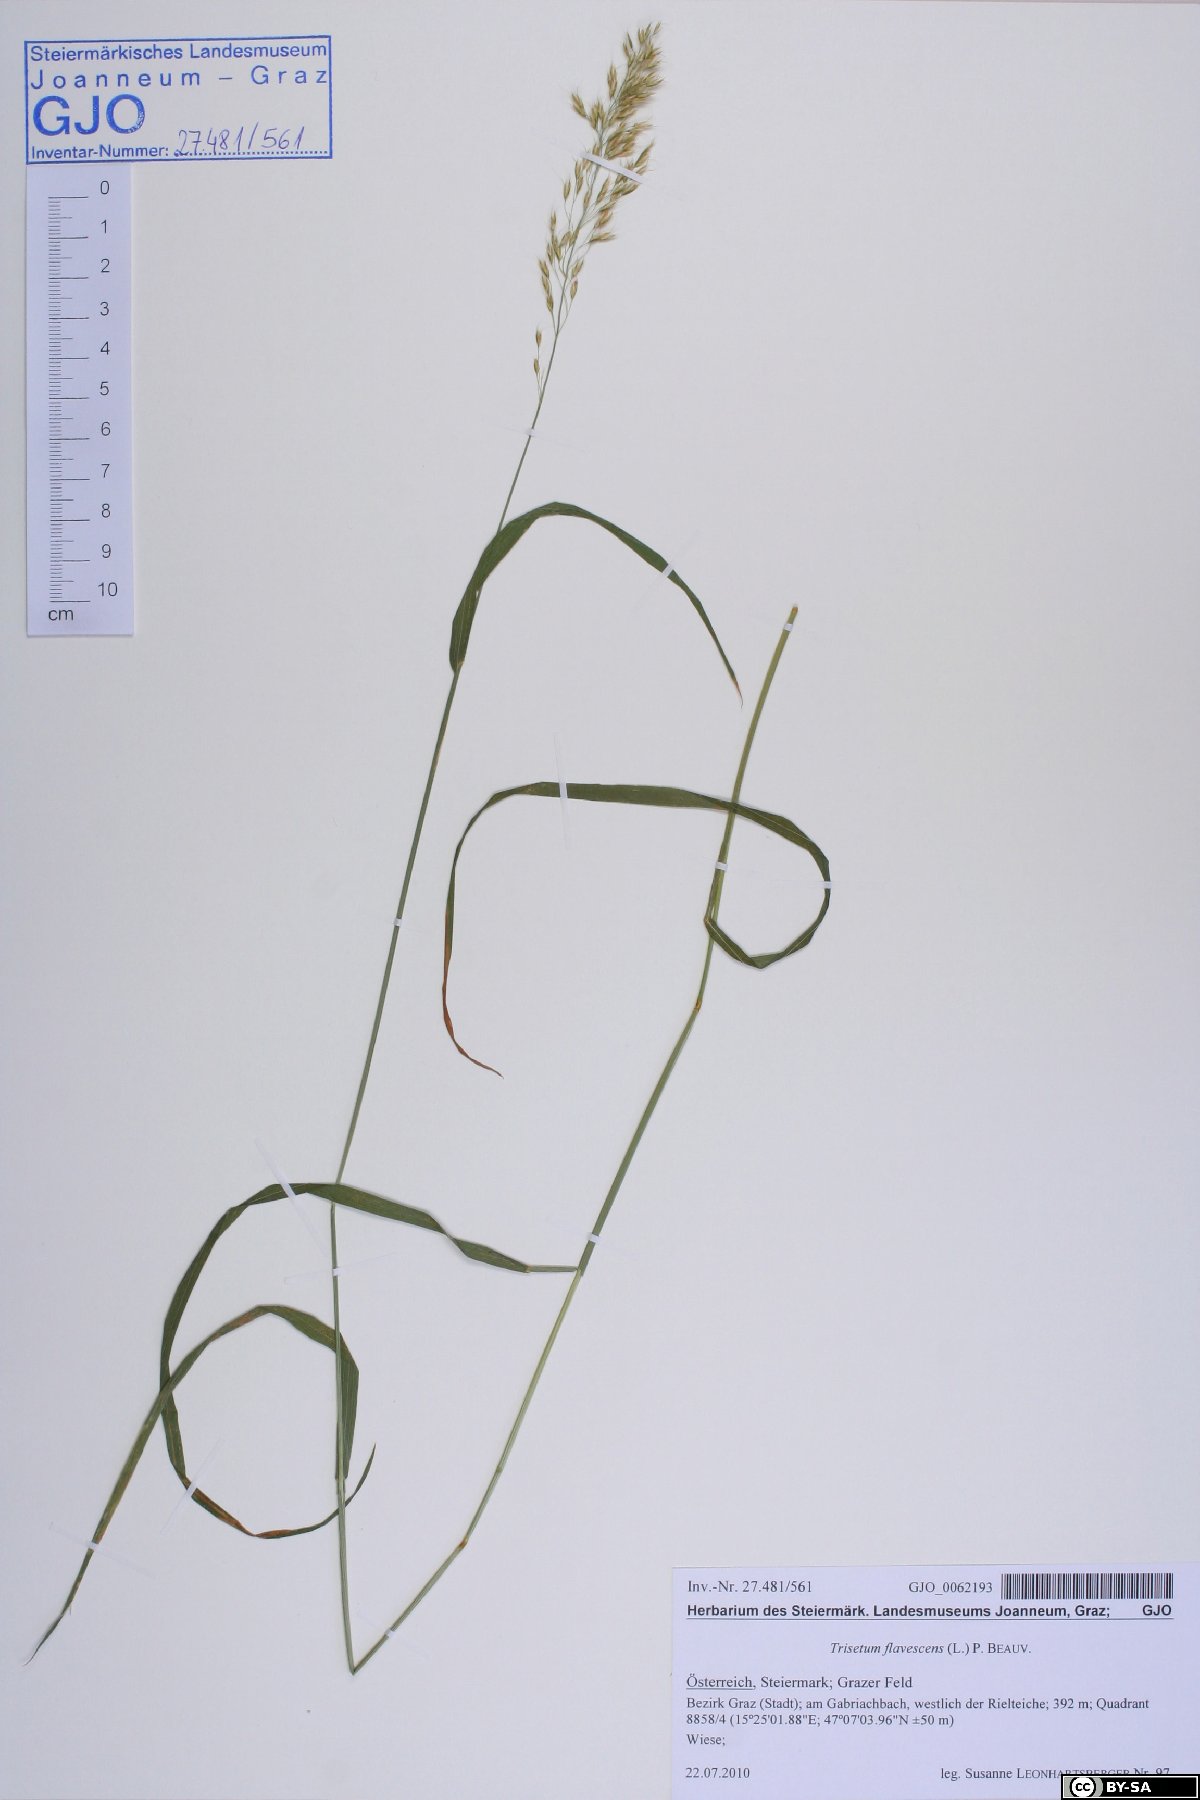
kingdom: Plantae
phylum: Tracheophyta
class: Liliopsida
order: Poales
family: Poaceae
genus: Trisetum
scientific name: Trisetum flavescens
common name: Yellow oat-grass
